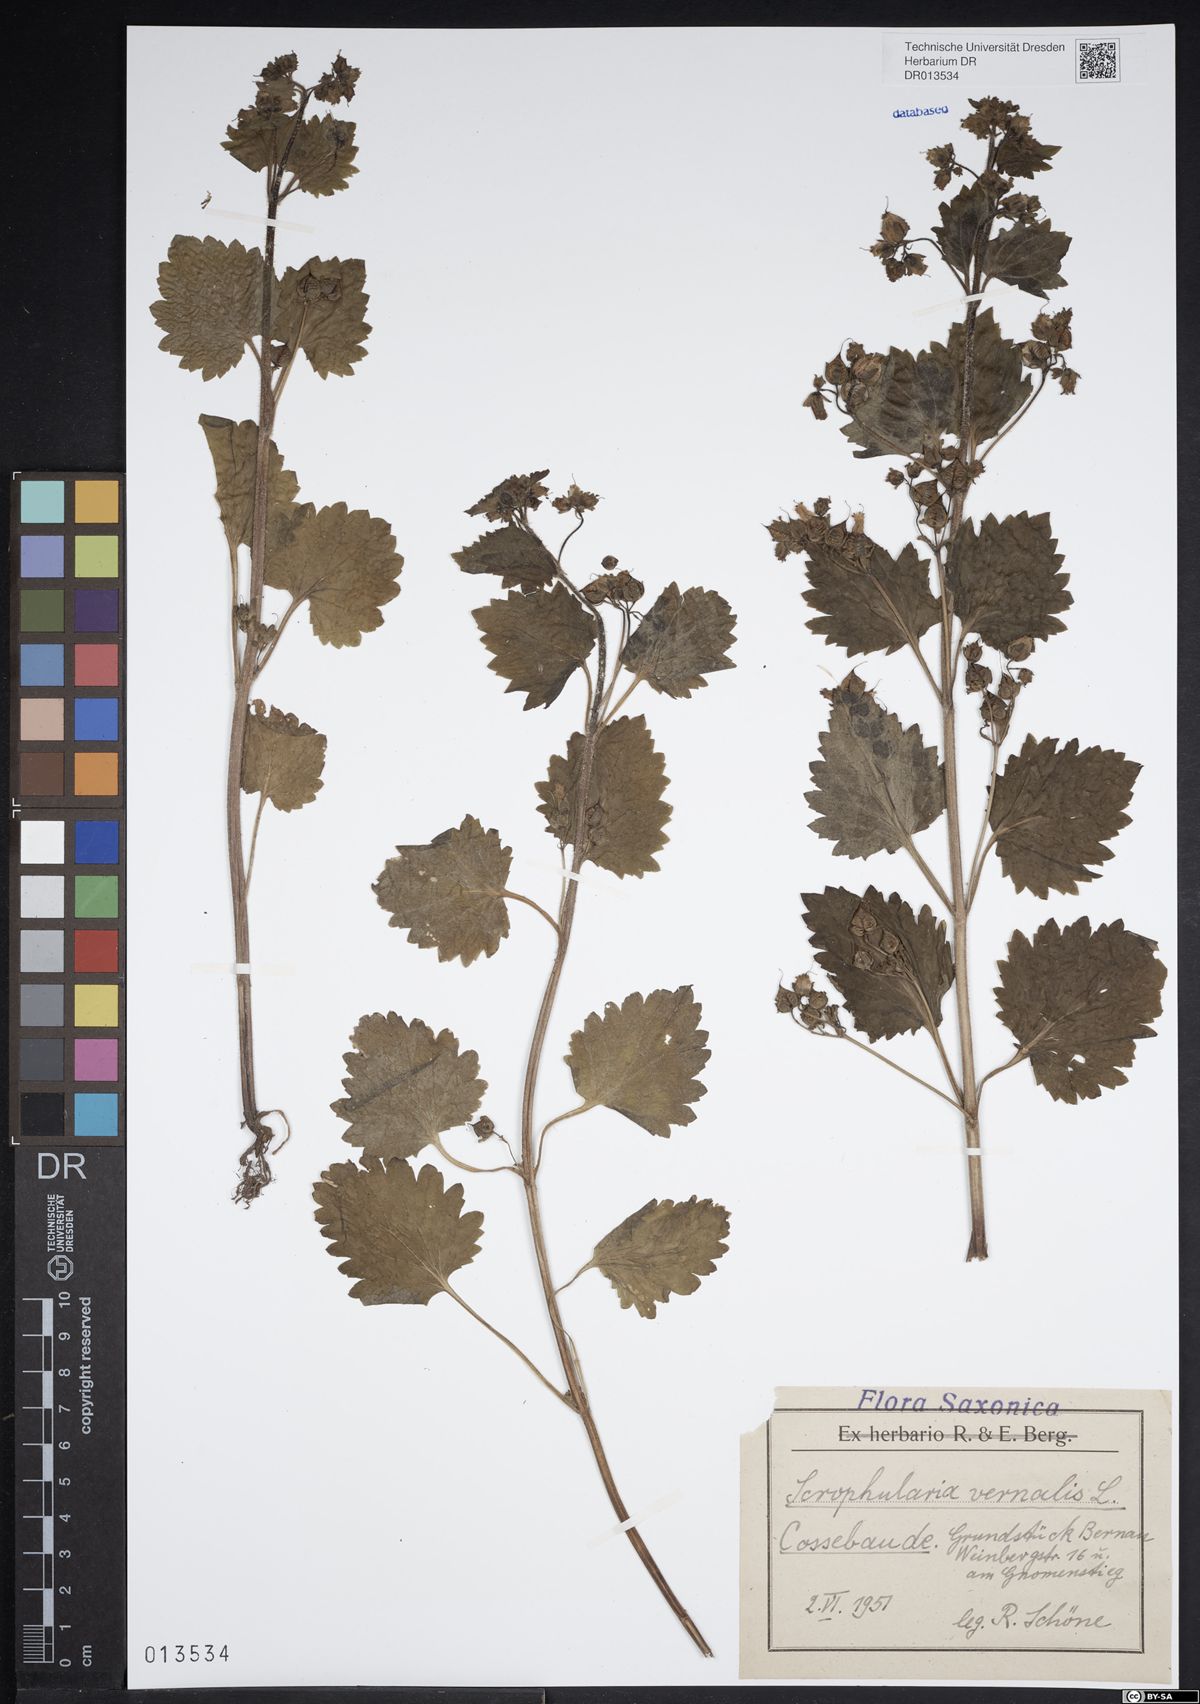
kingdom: Plantae
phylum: Tracheophyta
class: Magnoliopsida
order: Lamiales
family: Scrophulariaceae
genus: Scrophularia
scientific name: Scrophularia vernalis
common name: Yellow figwort
